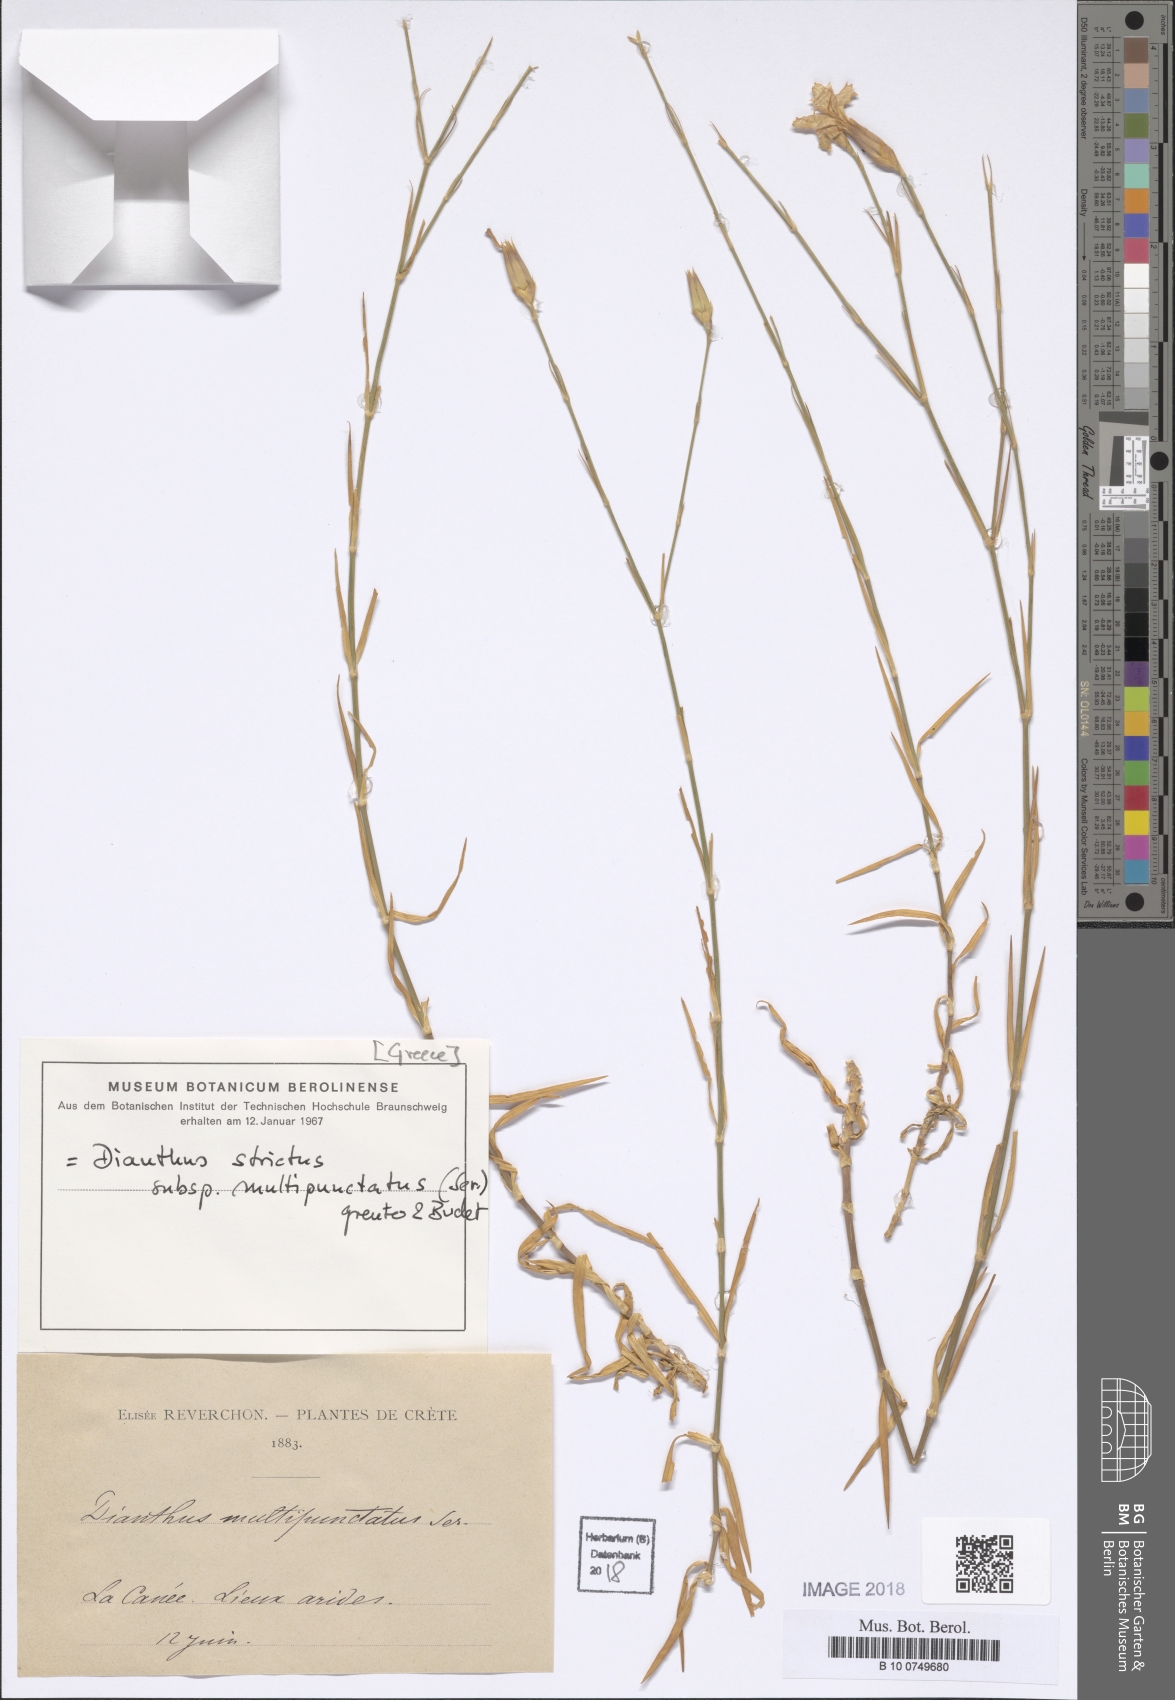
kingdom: Plantae
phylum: Tracheophyta
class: Magnoliopsida
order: Caryophyllales
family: Caryophyllaceae
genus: Dianthus
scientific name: Dianthus strictus
